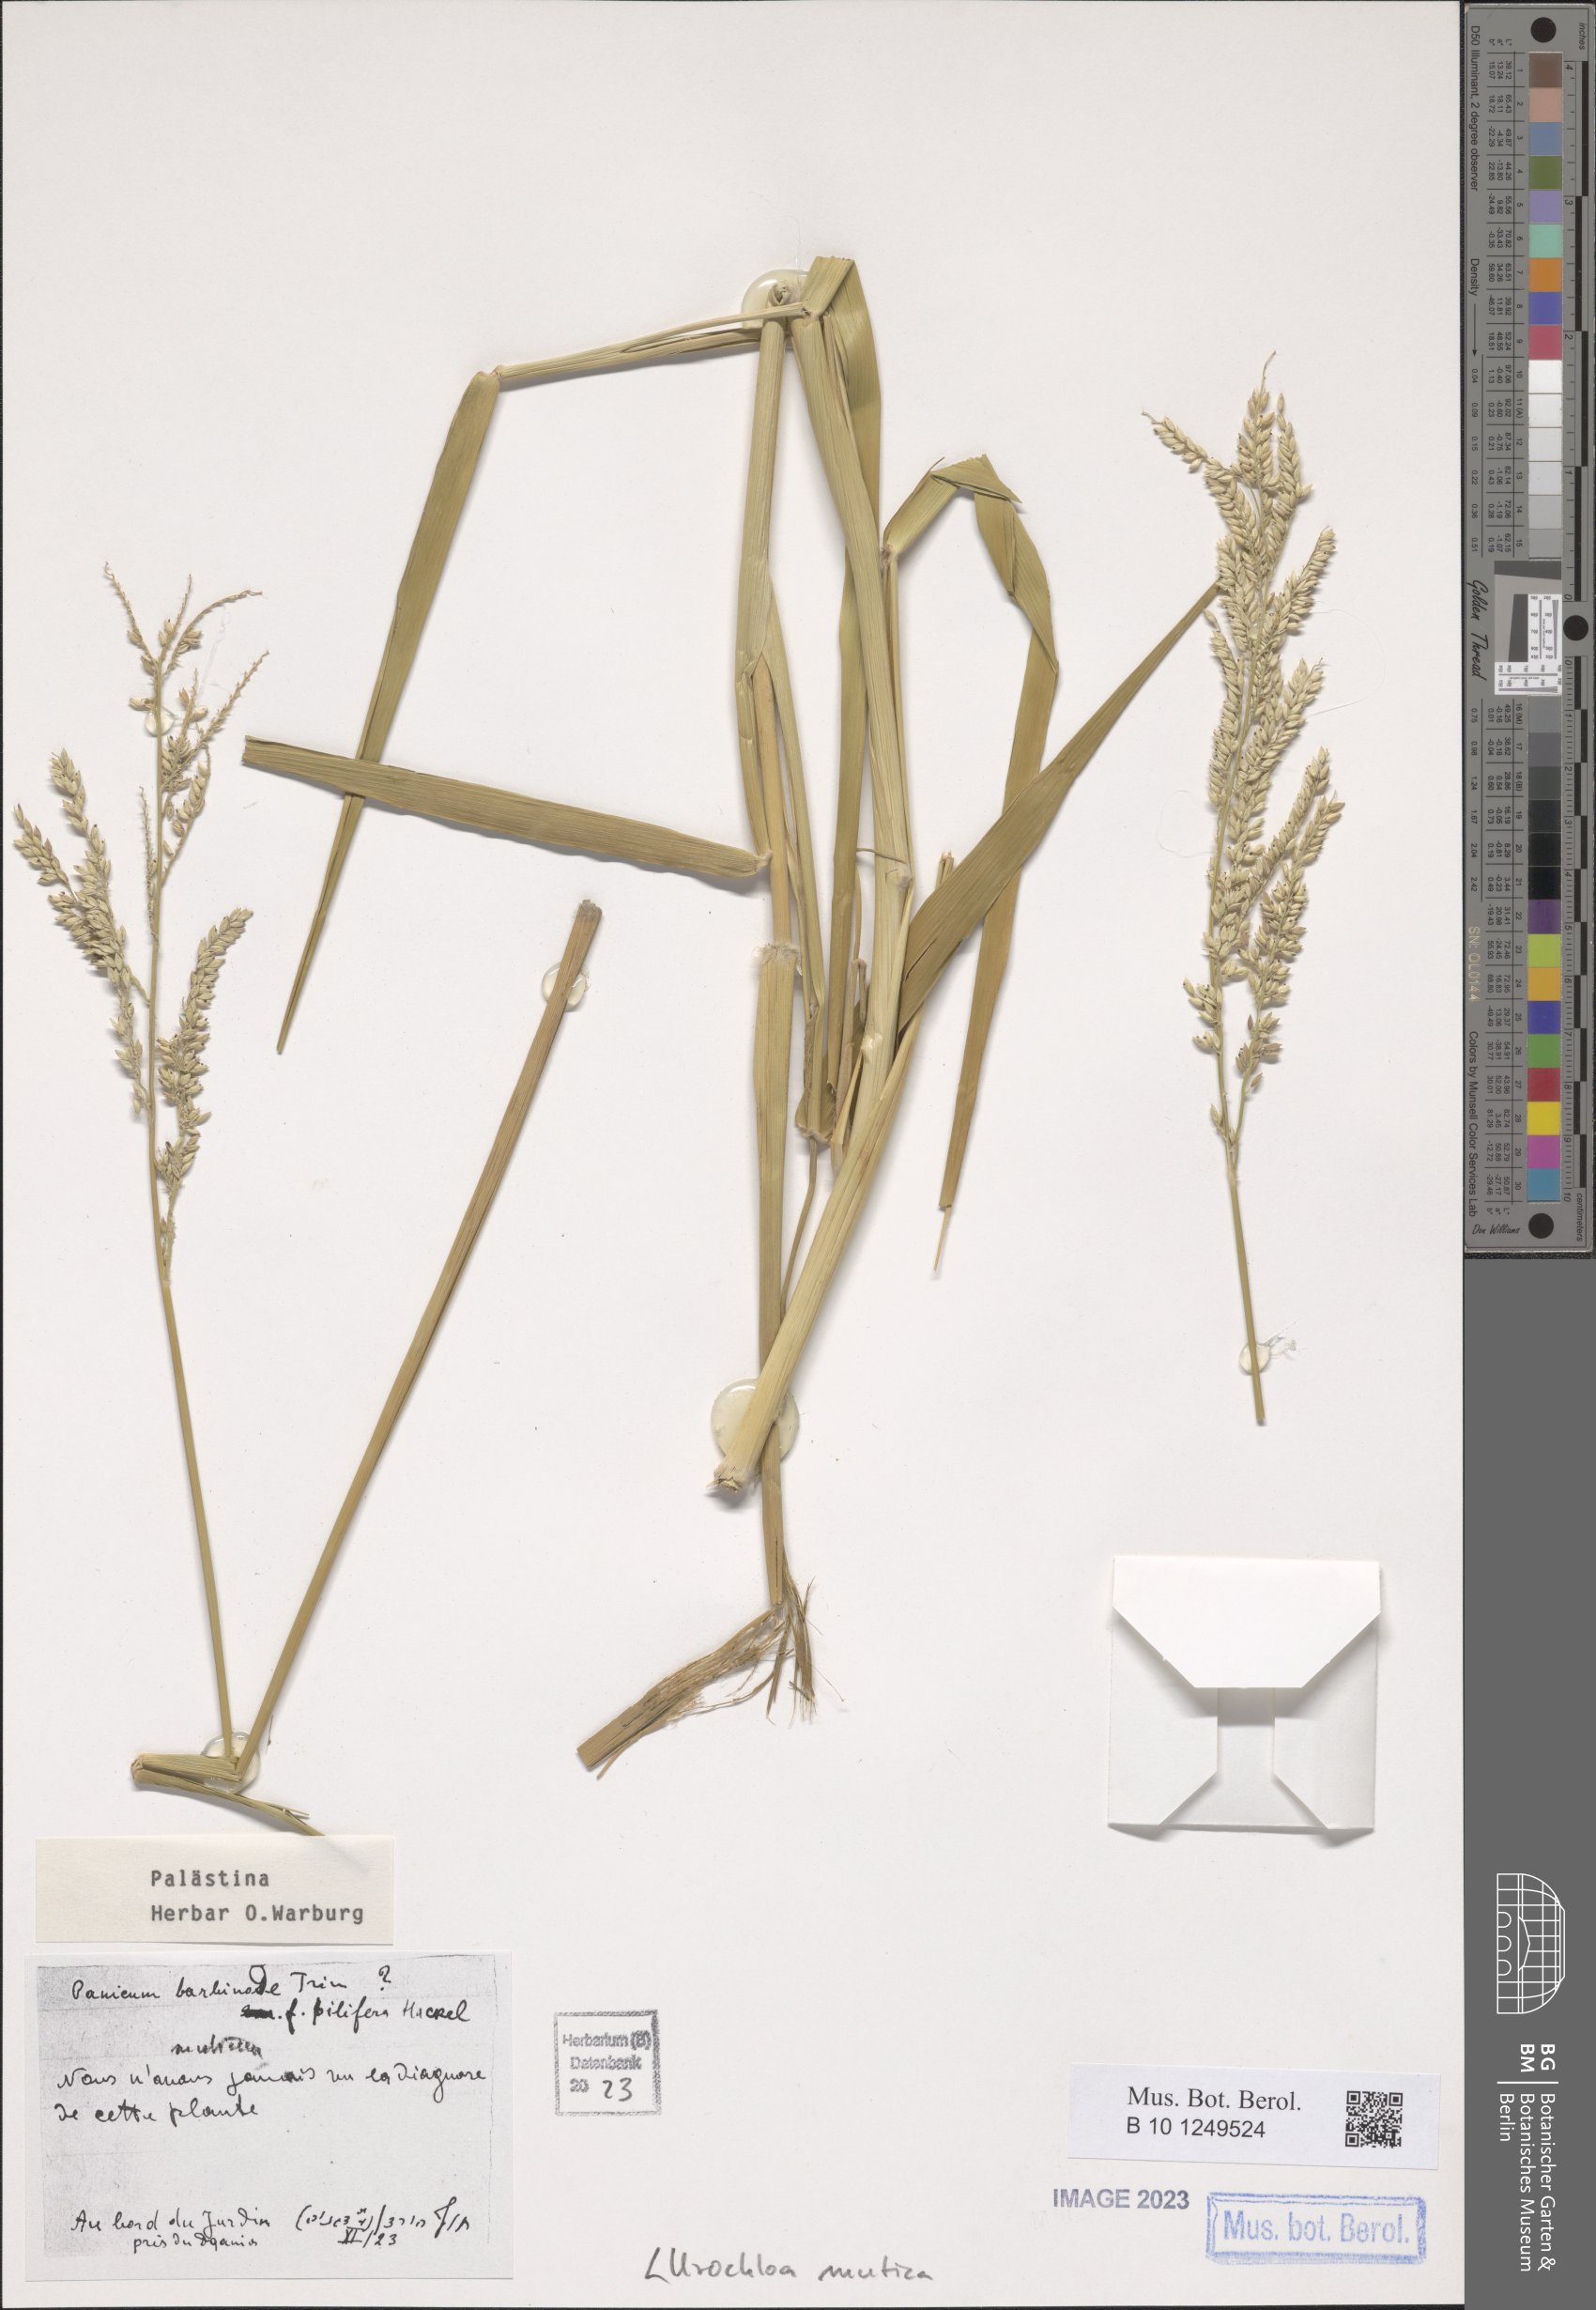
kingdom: Plantae
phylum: Tracheophyta
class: Liliopsida
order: Poales
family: Poaceae
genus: Urochloa
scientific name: Urochloa mutica
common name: Para grass
